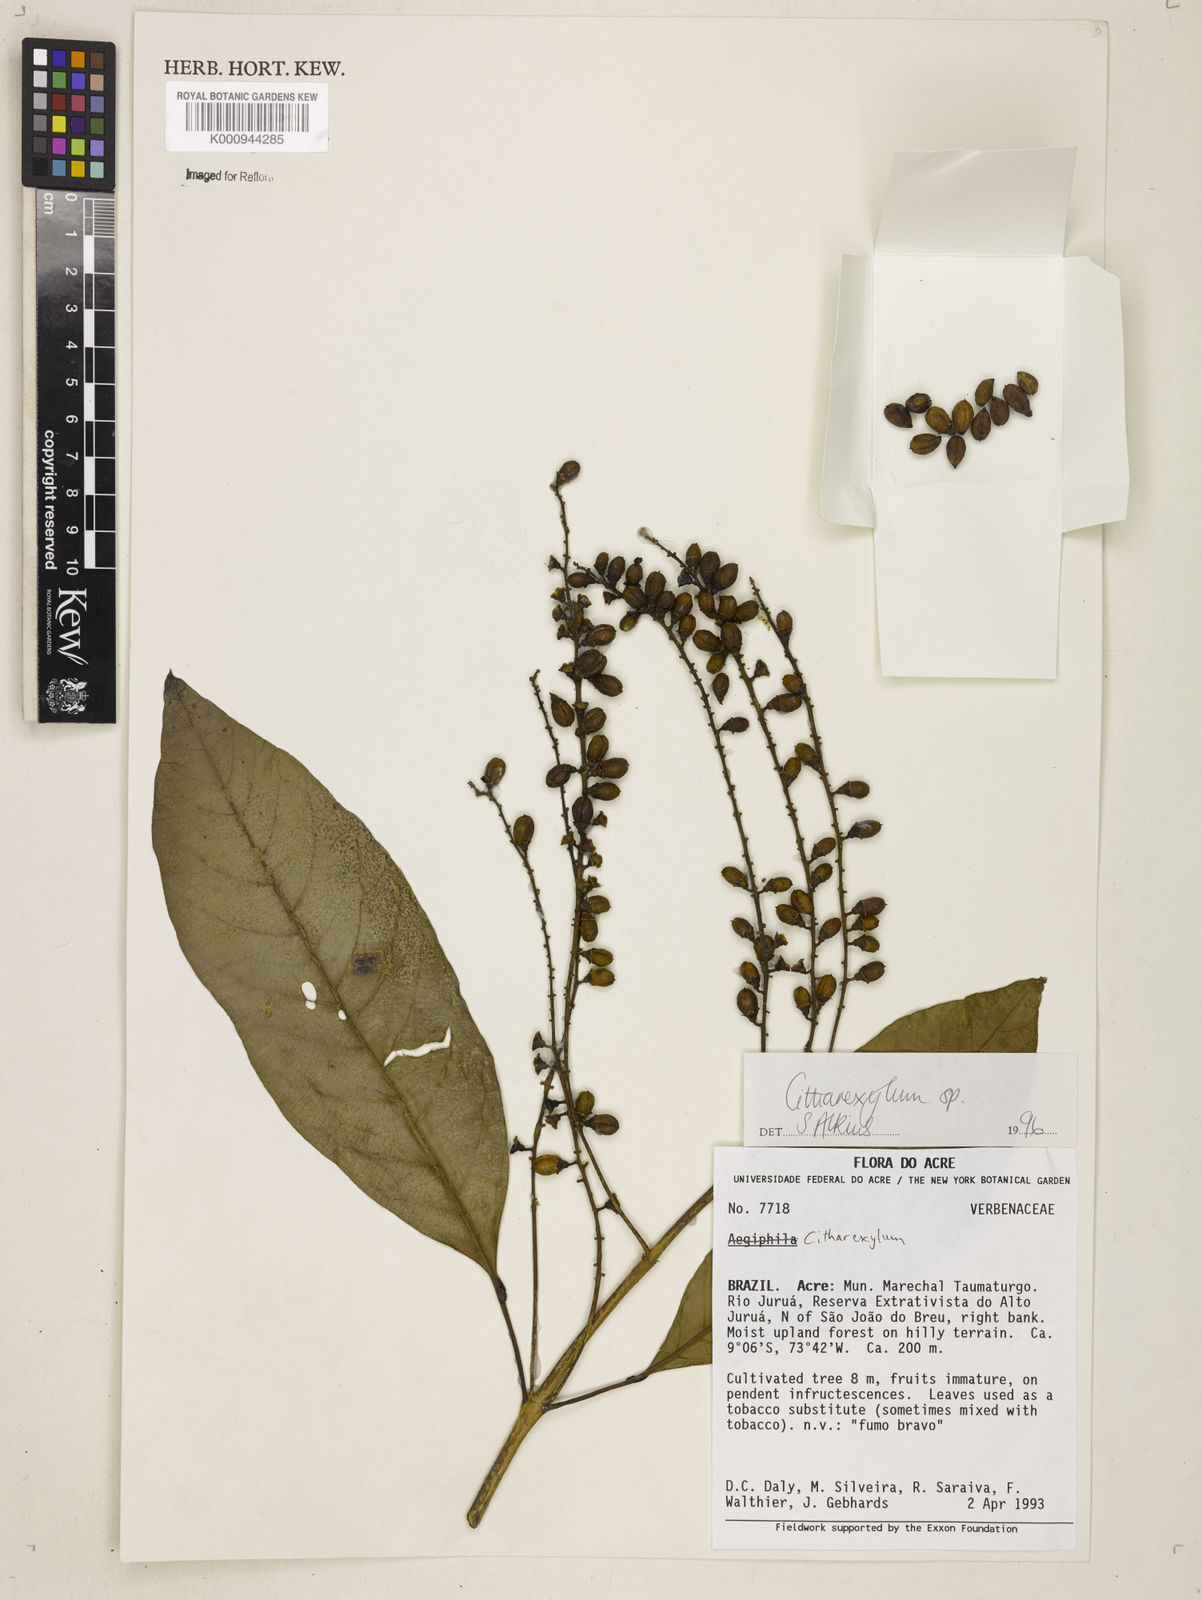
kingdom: Plantae
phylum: Tracheophyta
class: Magnoliopsida
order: Lamiales
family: Verbenaceae
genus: Citharexylum
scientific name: Citharexylum
